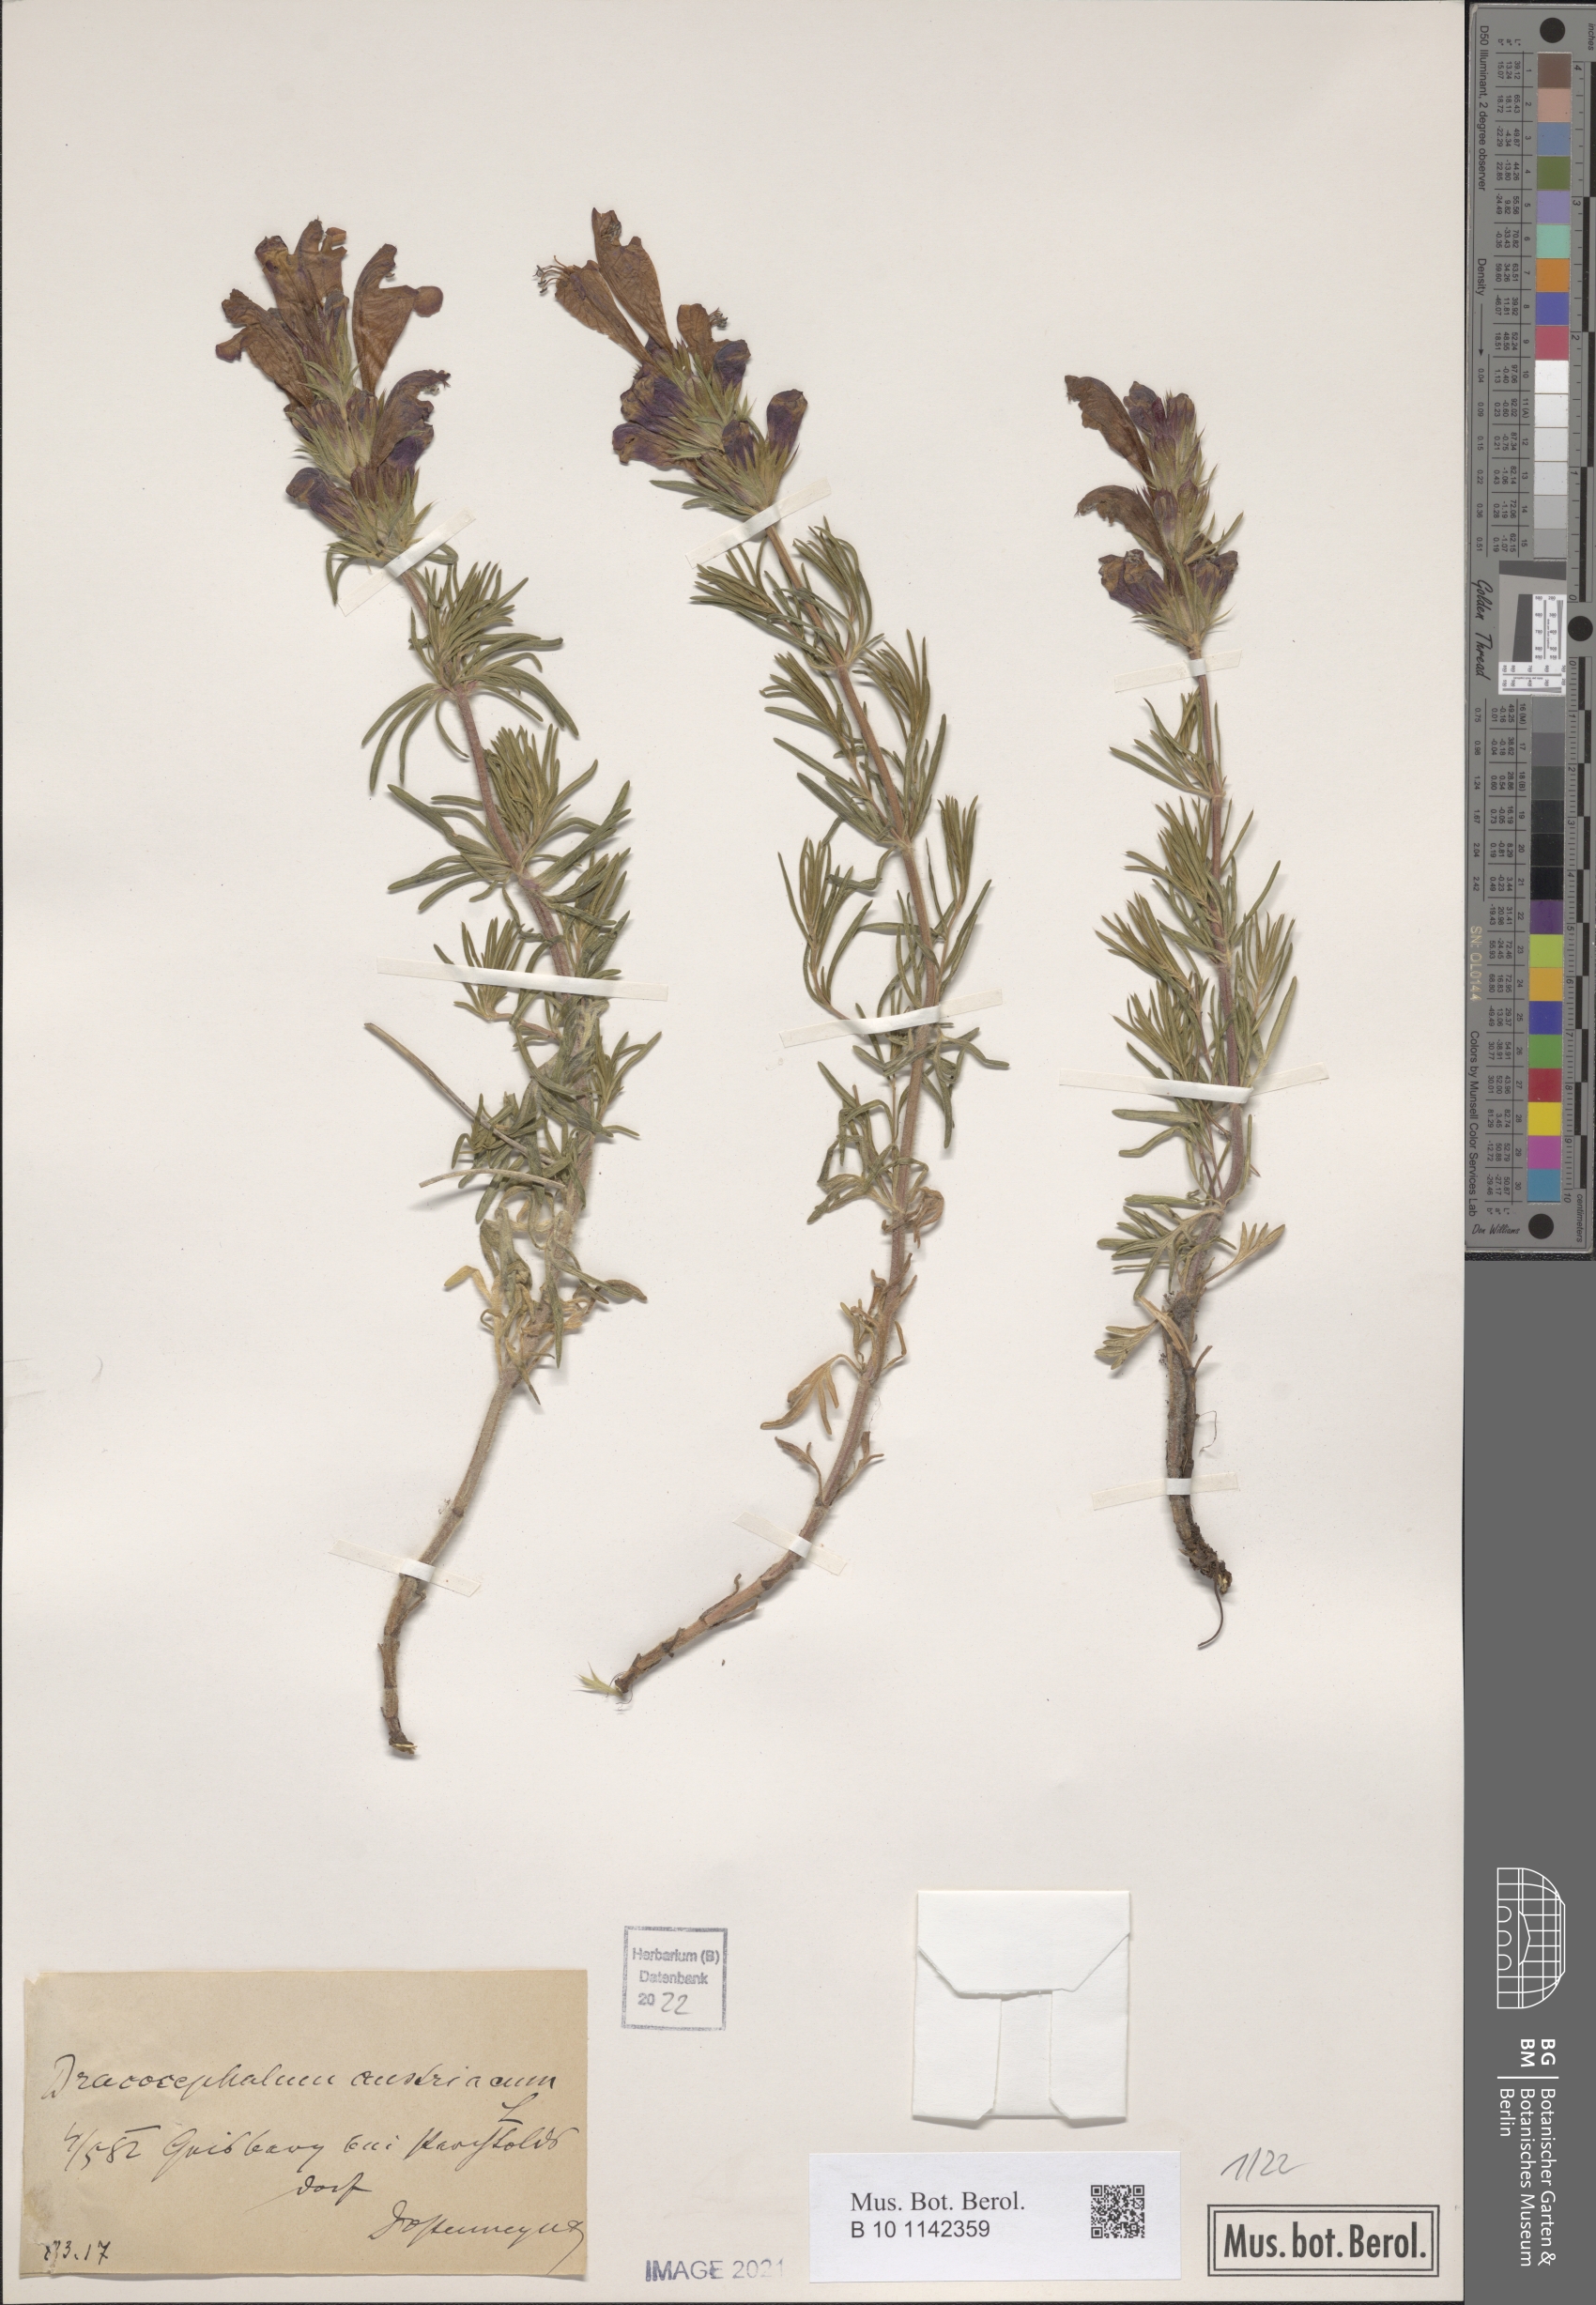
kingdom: Plantae
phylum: Tracheophyta
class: Magnoliopsida
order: Lamiales
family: Lamiaceae
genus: Dracocephalum
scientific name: Dracocephalum austriacum
